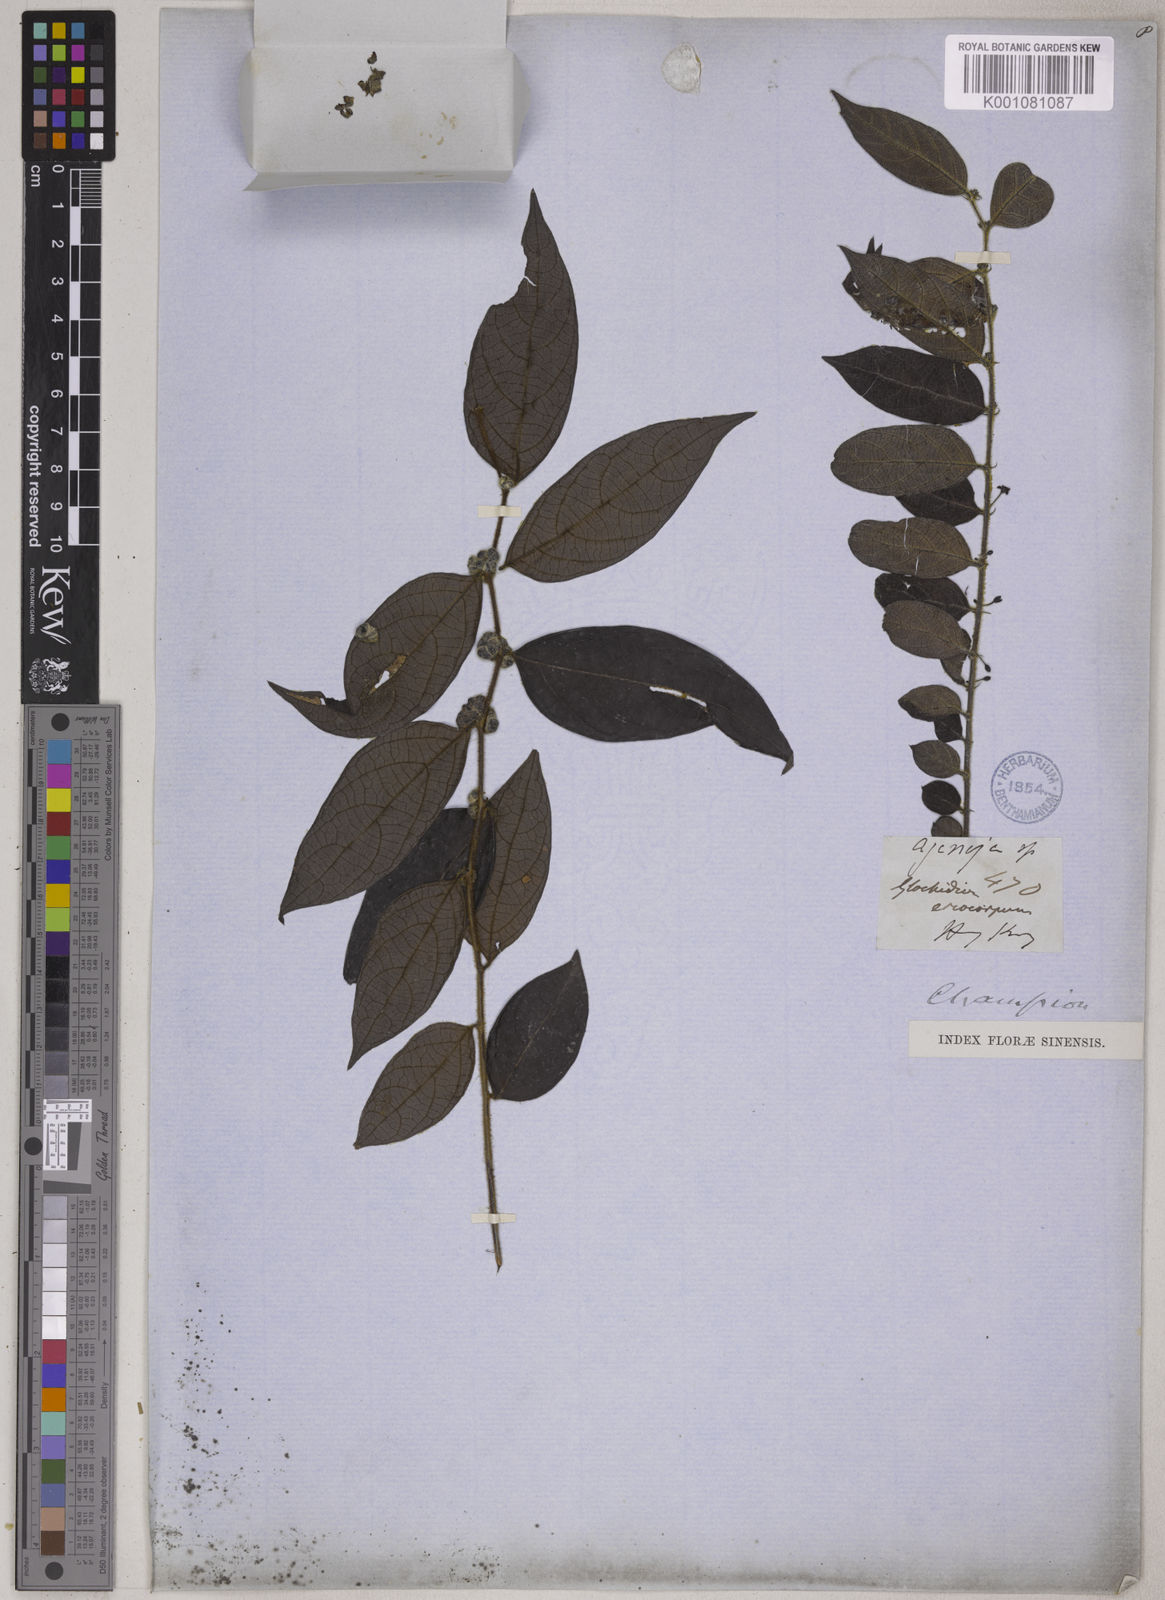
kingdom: Plantae
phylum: Tracheophyta
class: Magnoliopsida
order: Malpighiales
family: Phyllanthaceae
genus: Glochidion
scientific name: Glochidion eriocarpum
